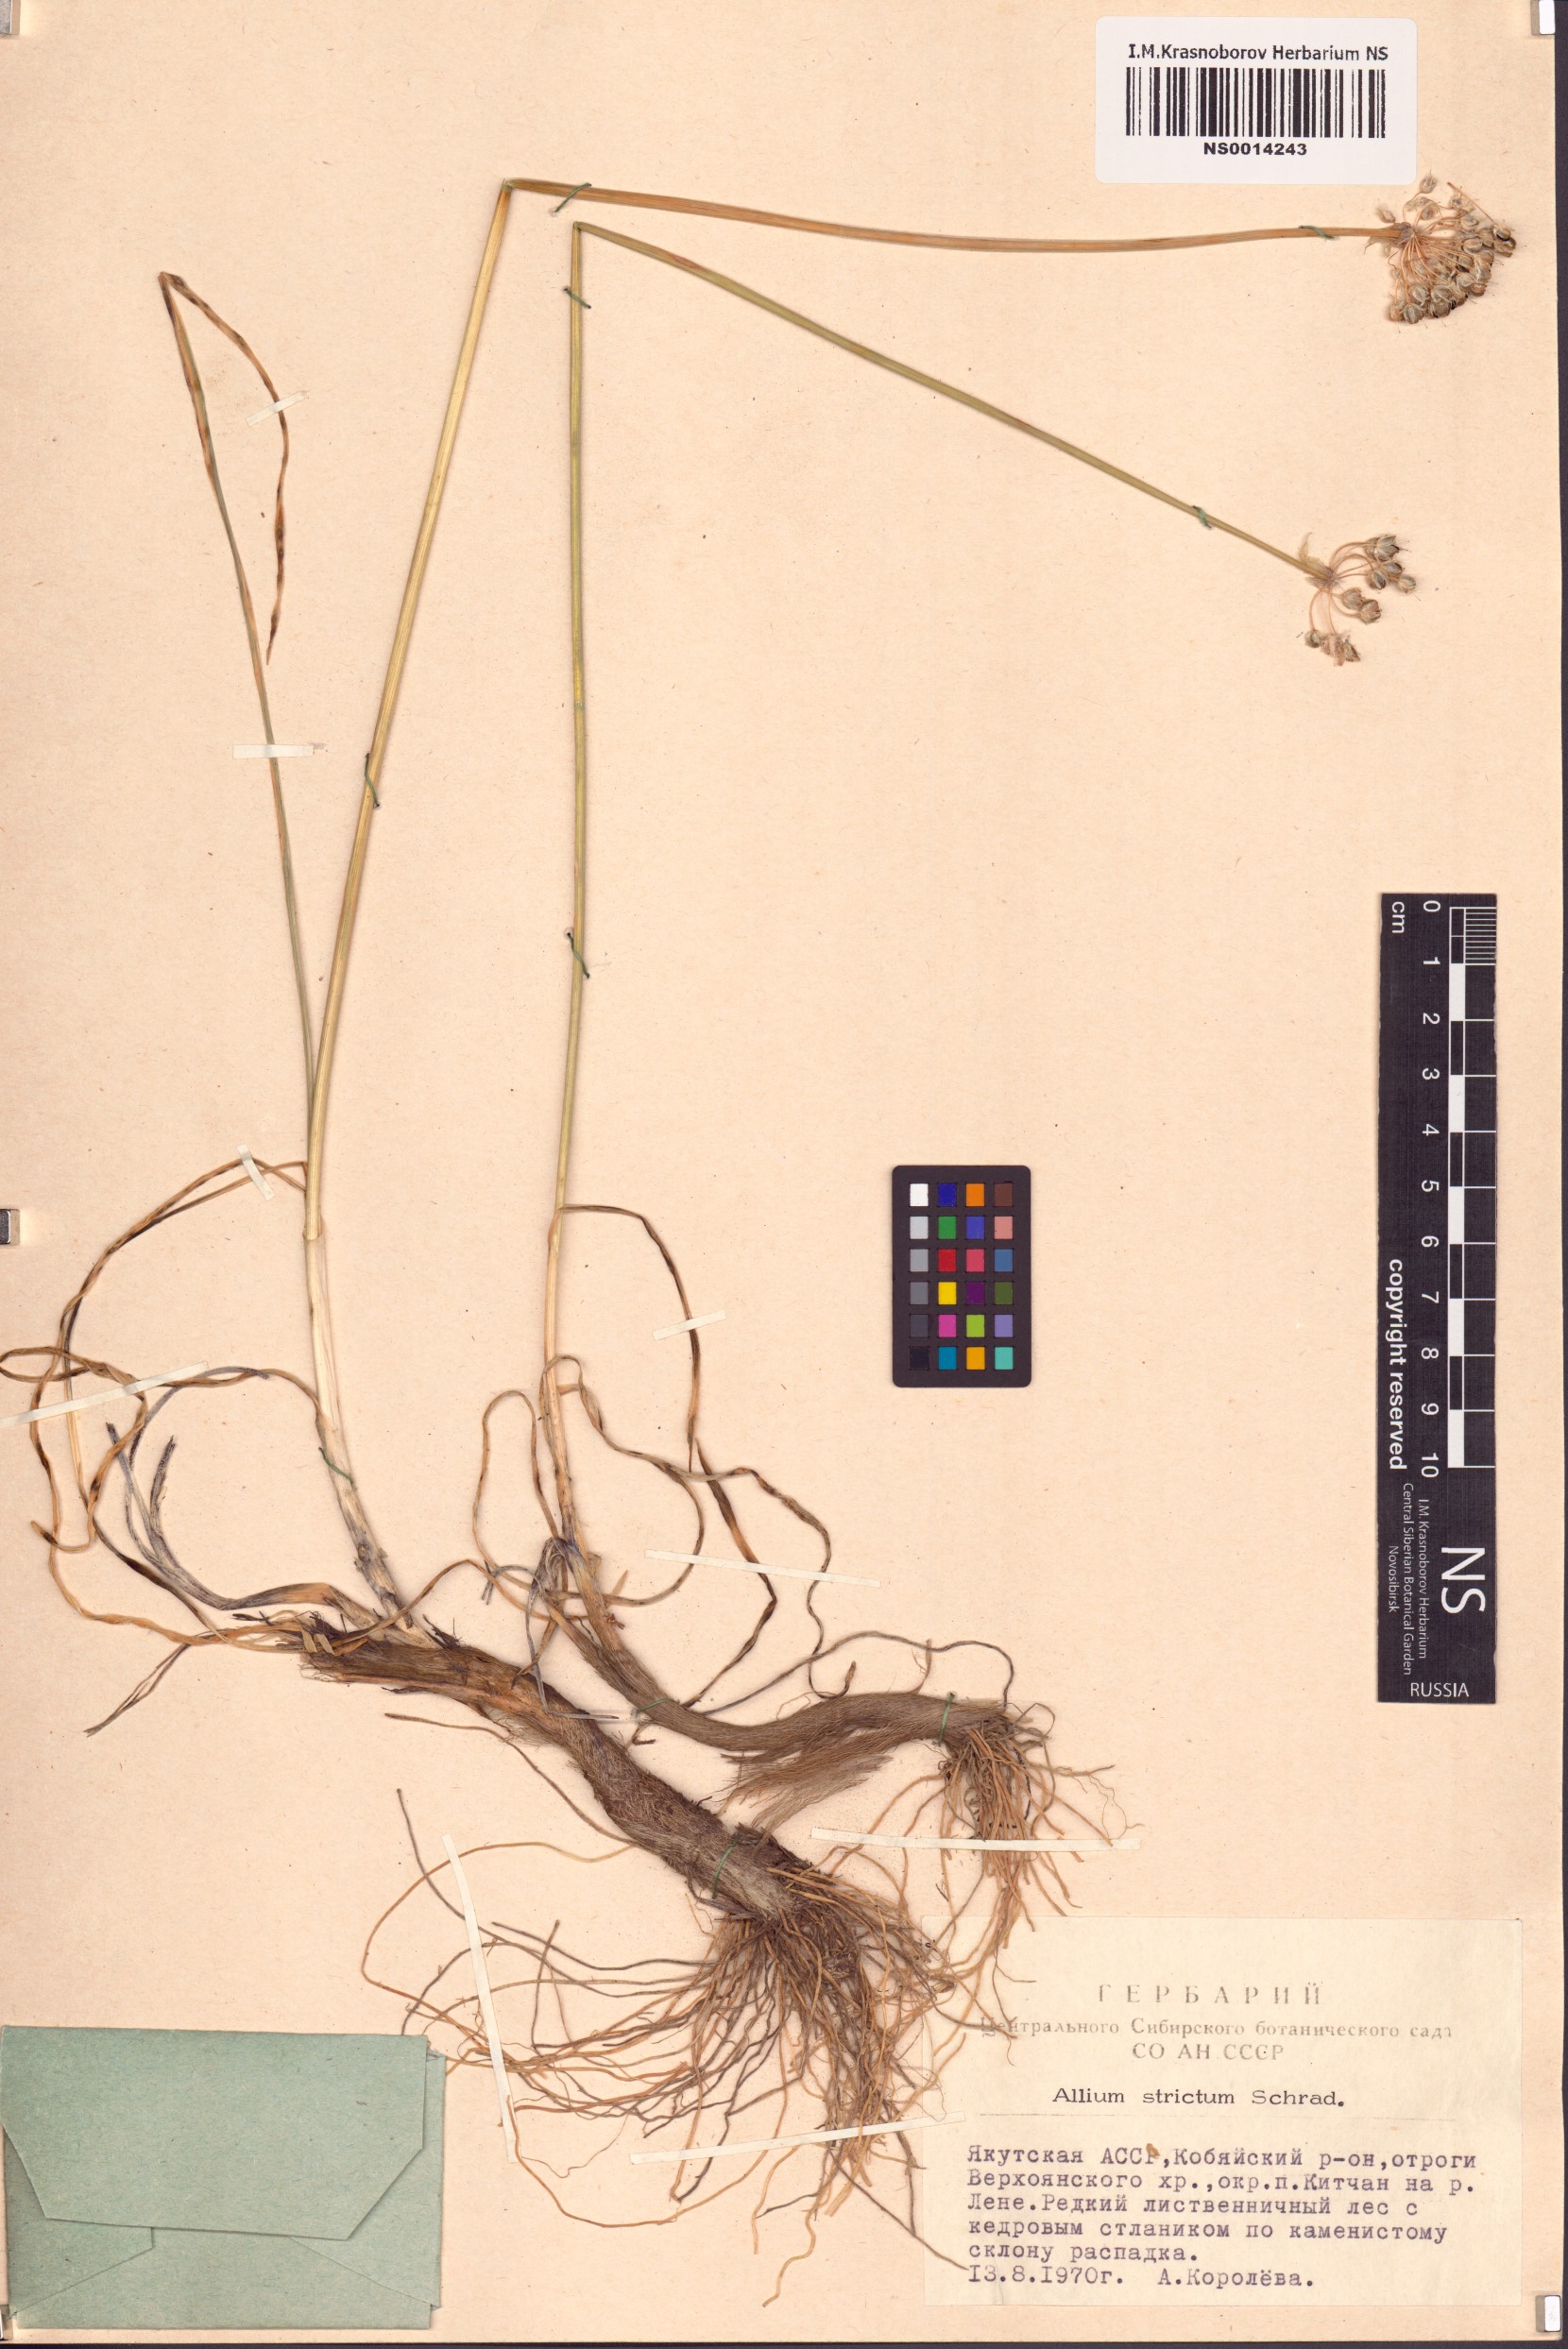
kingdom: Plantae
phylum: Tracheophyta
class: Liliopsida
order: Asparagales
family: Amaryllidaceae
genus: Allium
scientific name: Allium strictum
